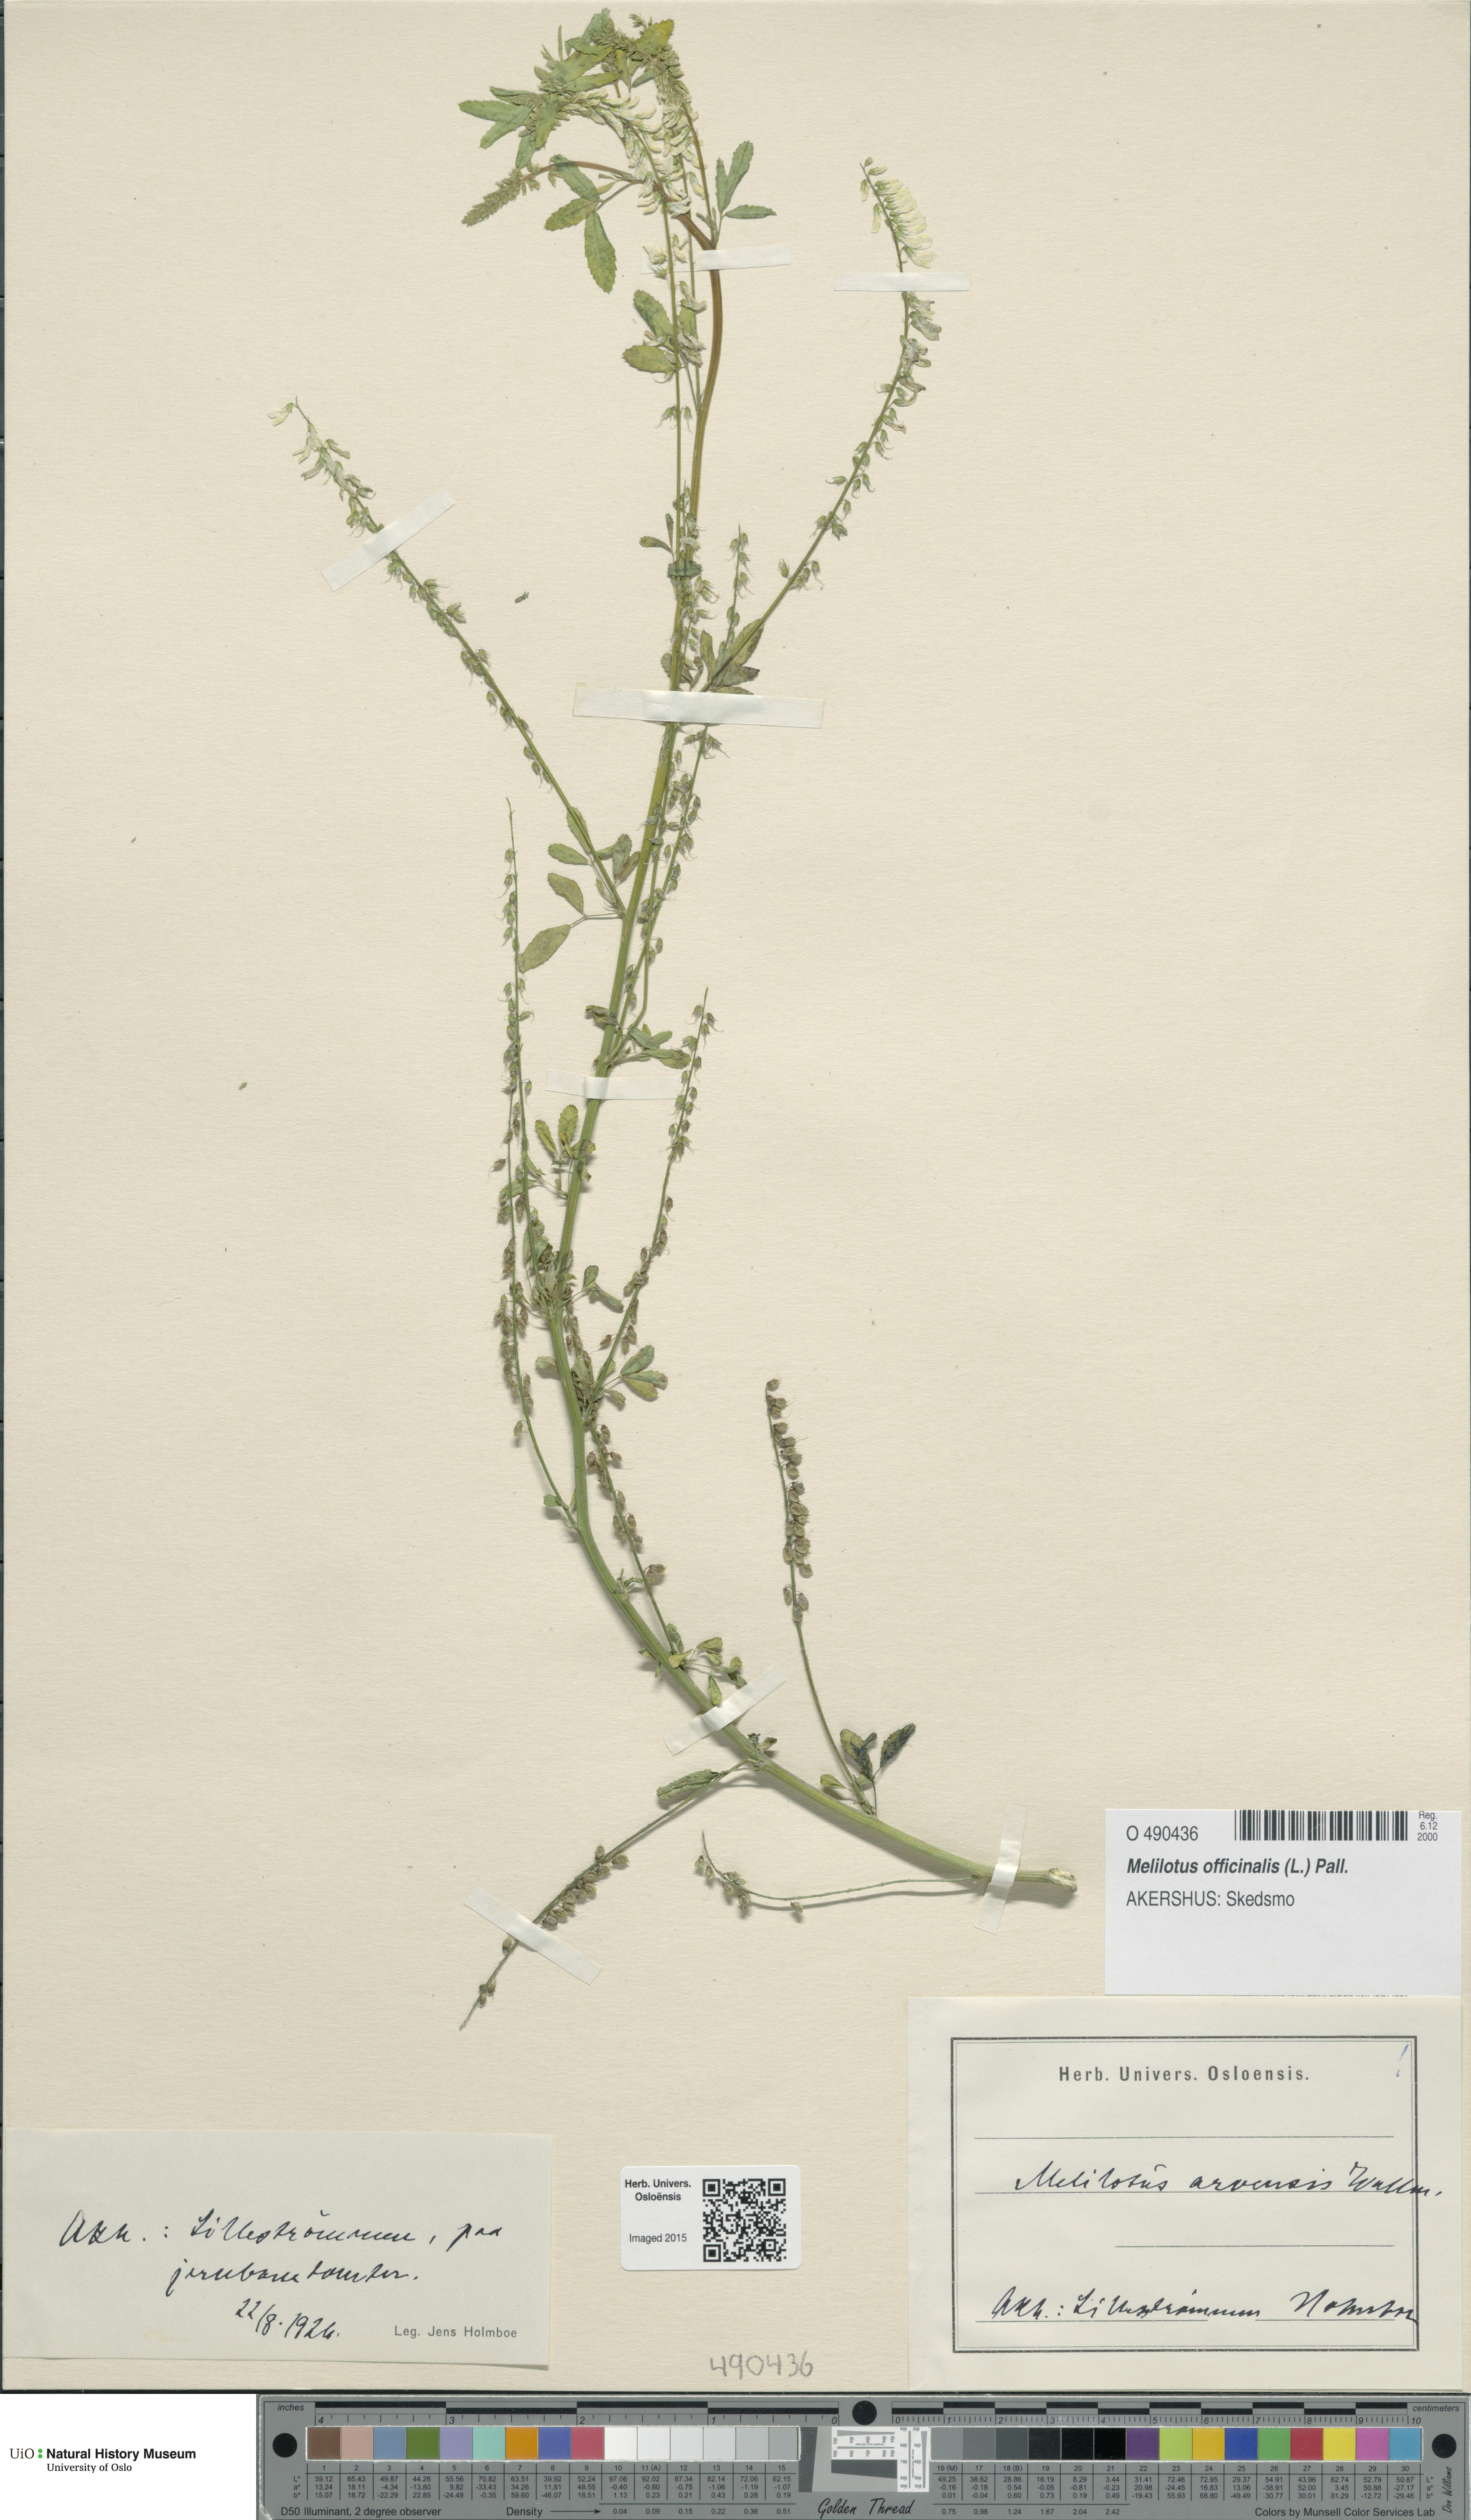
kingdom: Plantae
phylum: Tracheophyta
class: Magnoliopsida
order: Fabales
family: Fabaceae
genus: Melilotus
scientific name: Melilotus officinalis
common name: Sweetclover
